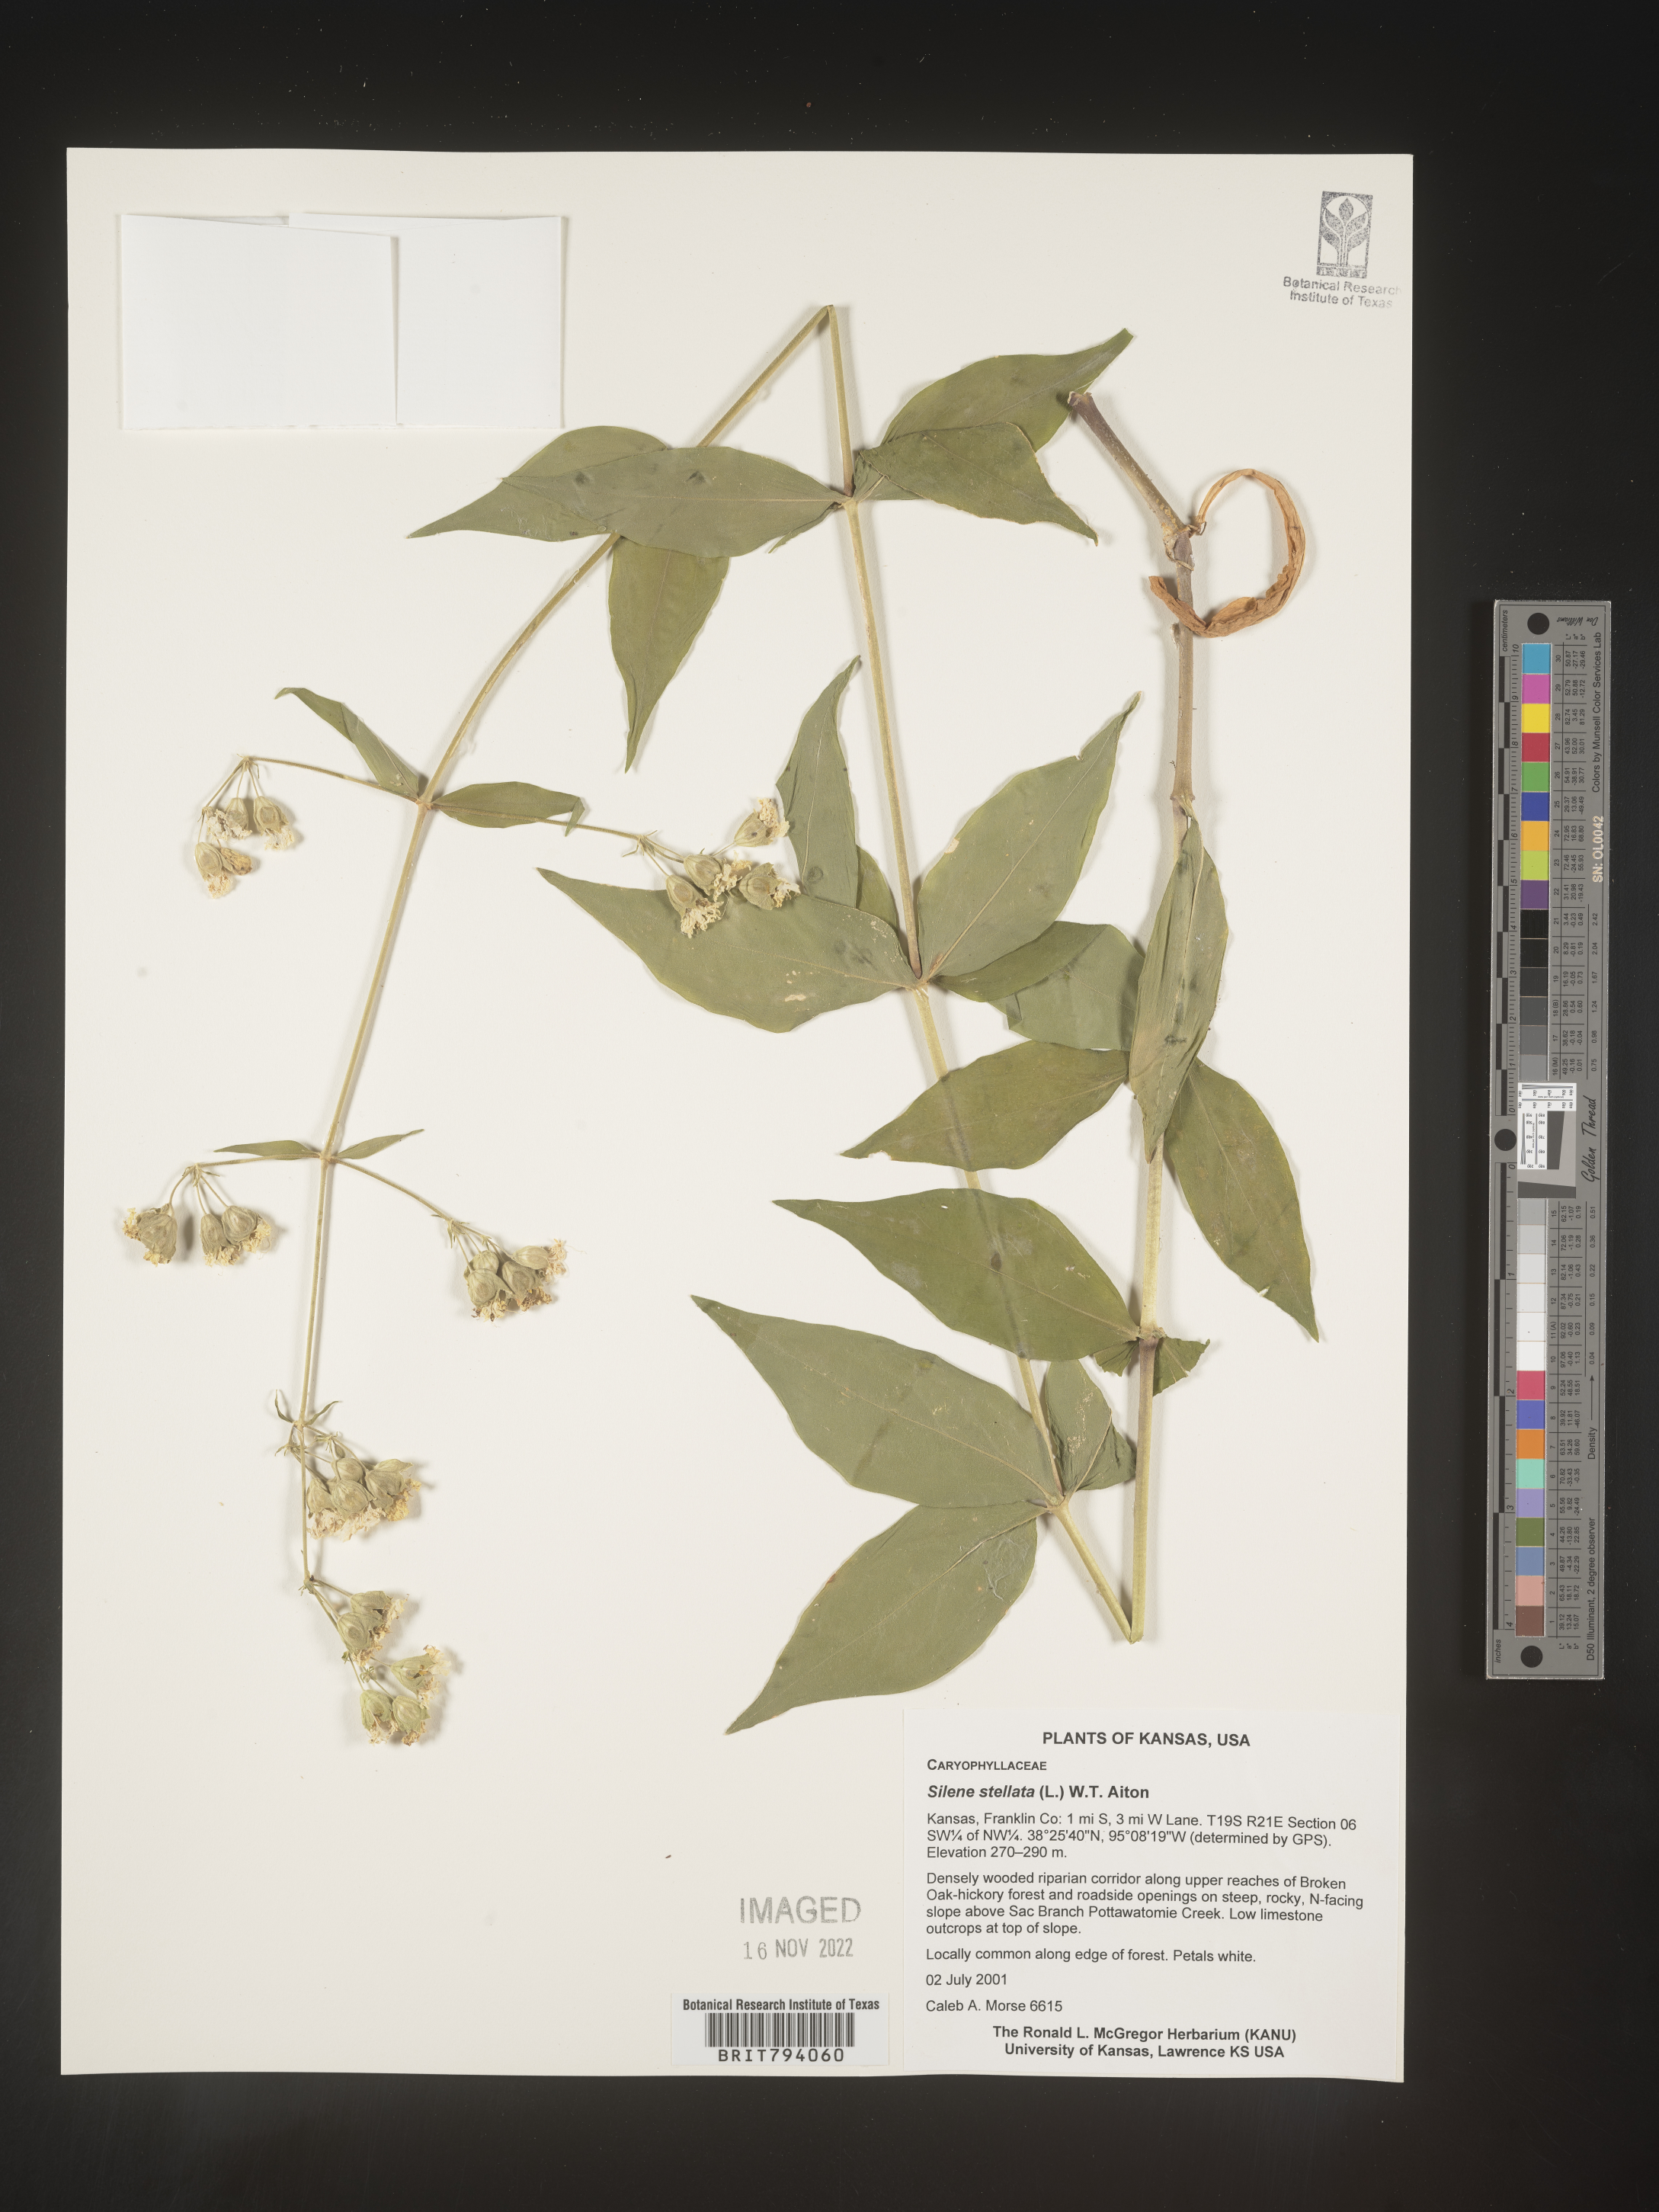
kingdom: Plantae
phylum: Tracheophyta
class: Magnoliopsida
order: Caryophyllales
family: Caryophyllaceae
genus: Silene
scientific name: Silene stellata
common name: Starry campion
